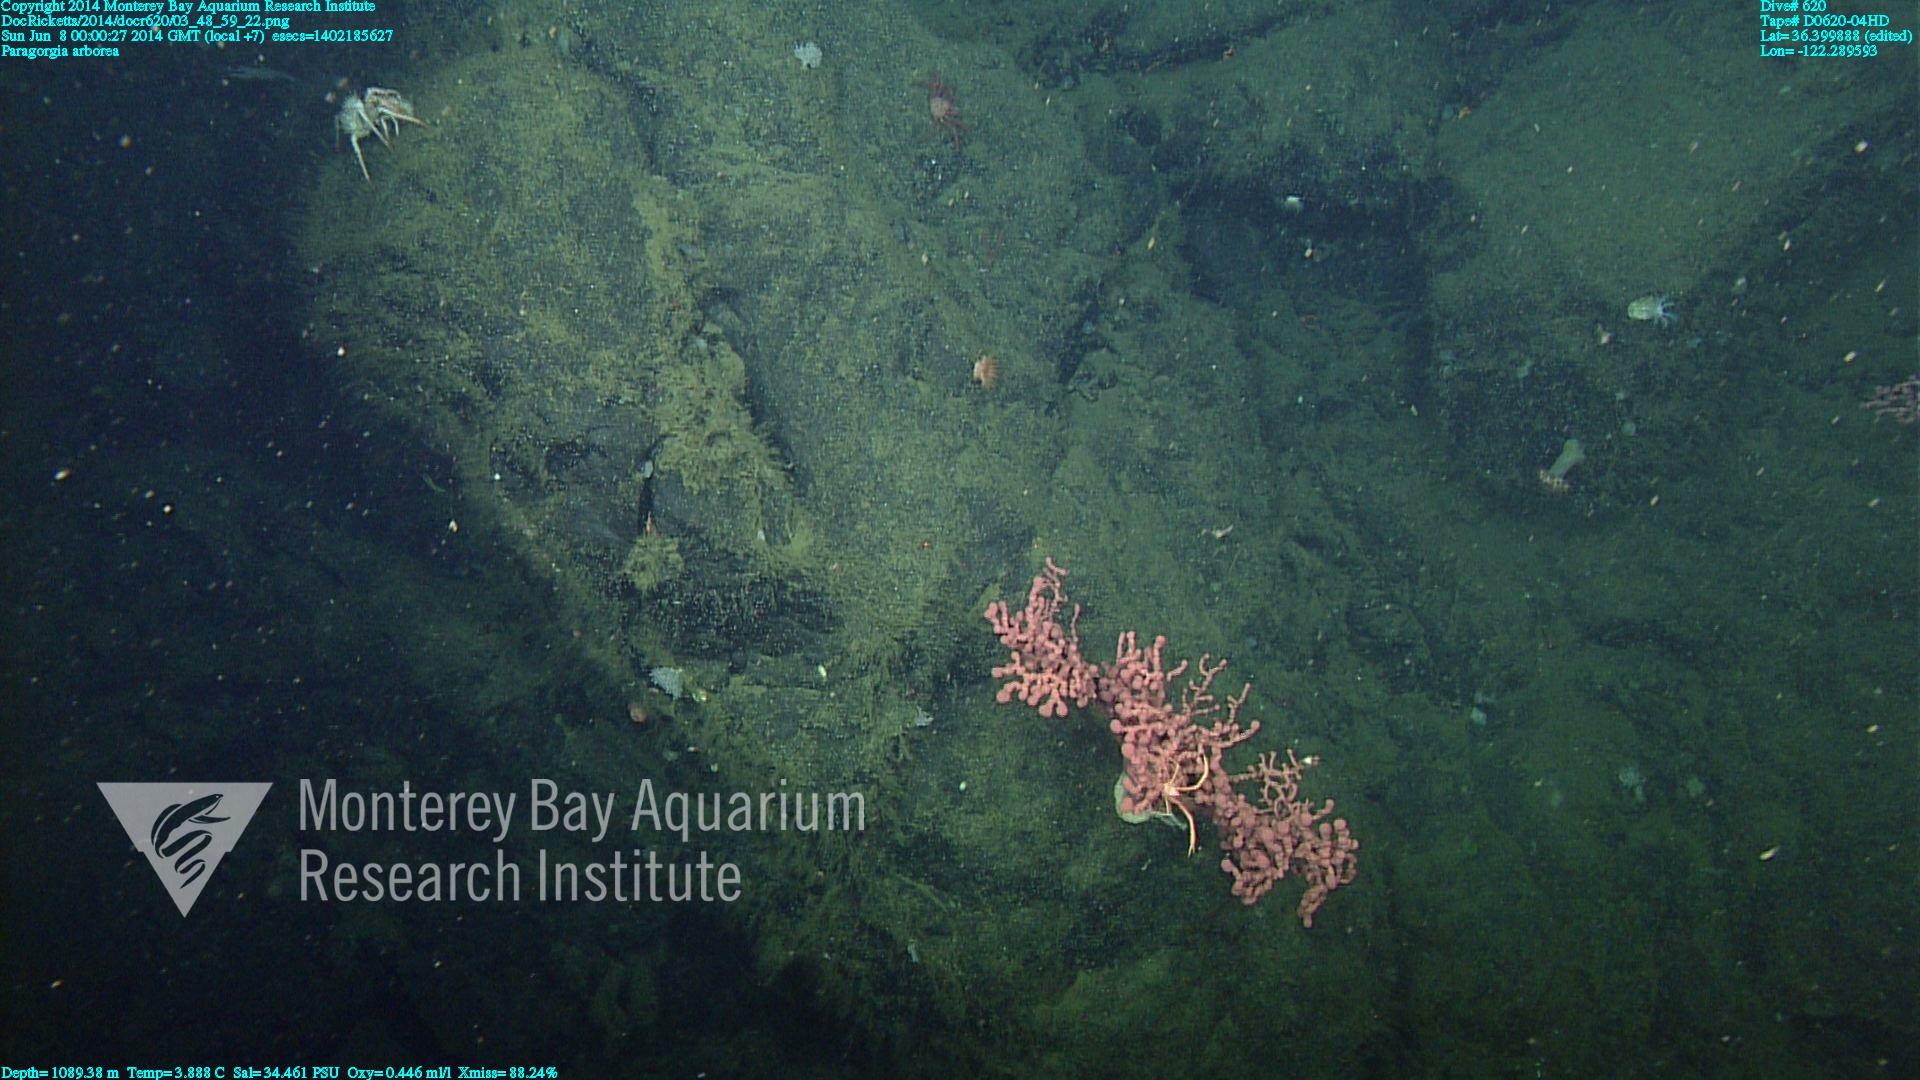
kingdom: Animalia
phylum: Cnidaria
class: Anthozoa
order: Scleralcyonacea
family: Coralliidae
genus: Paragorgia
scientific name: Paragorgia arborea
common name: Bubble gum coral
